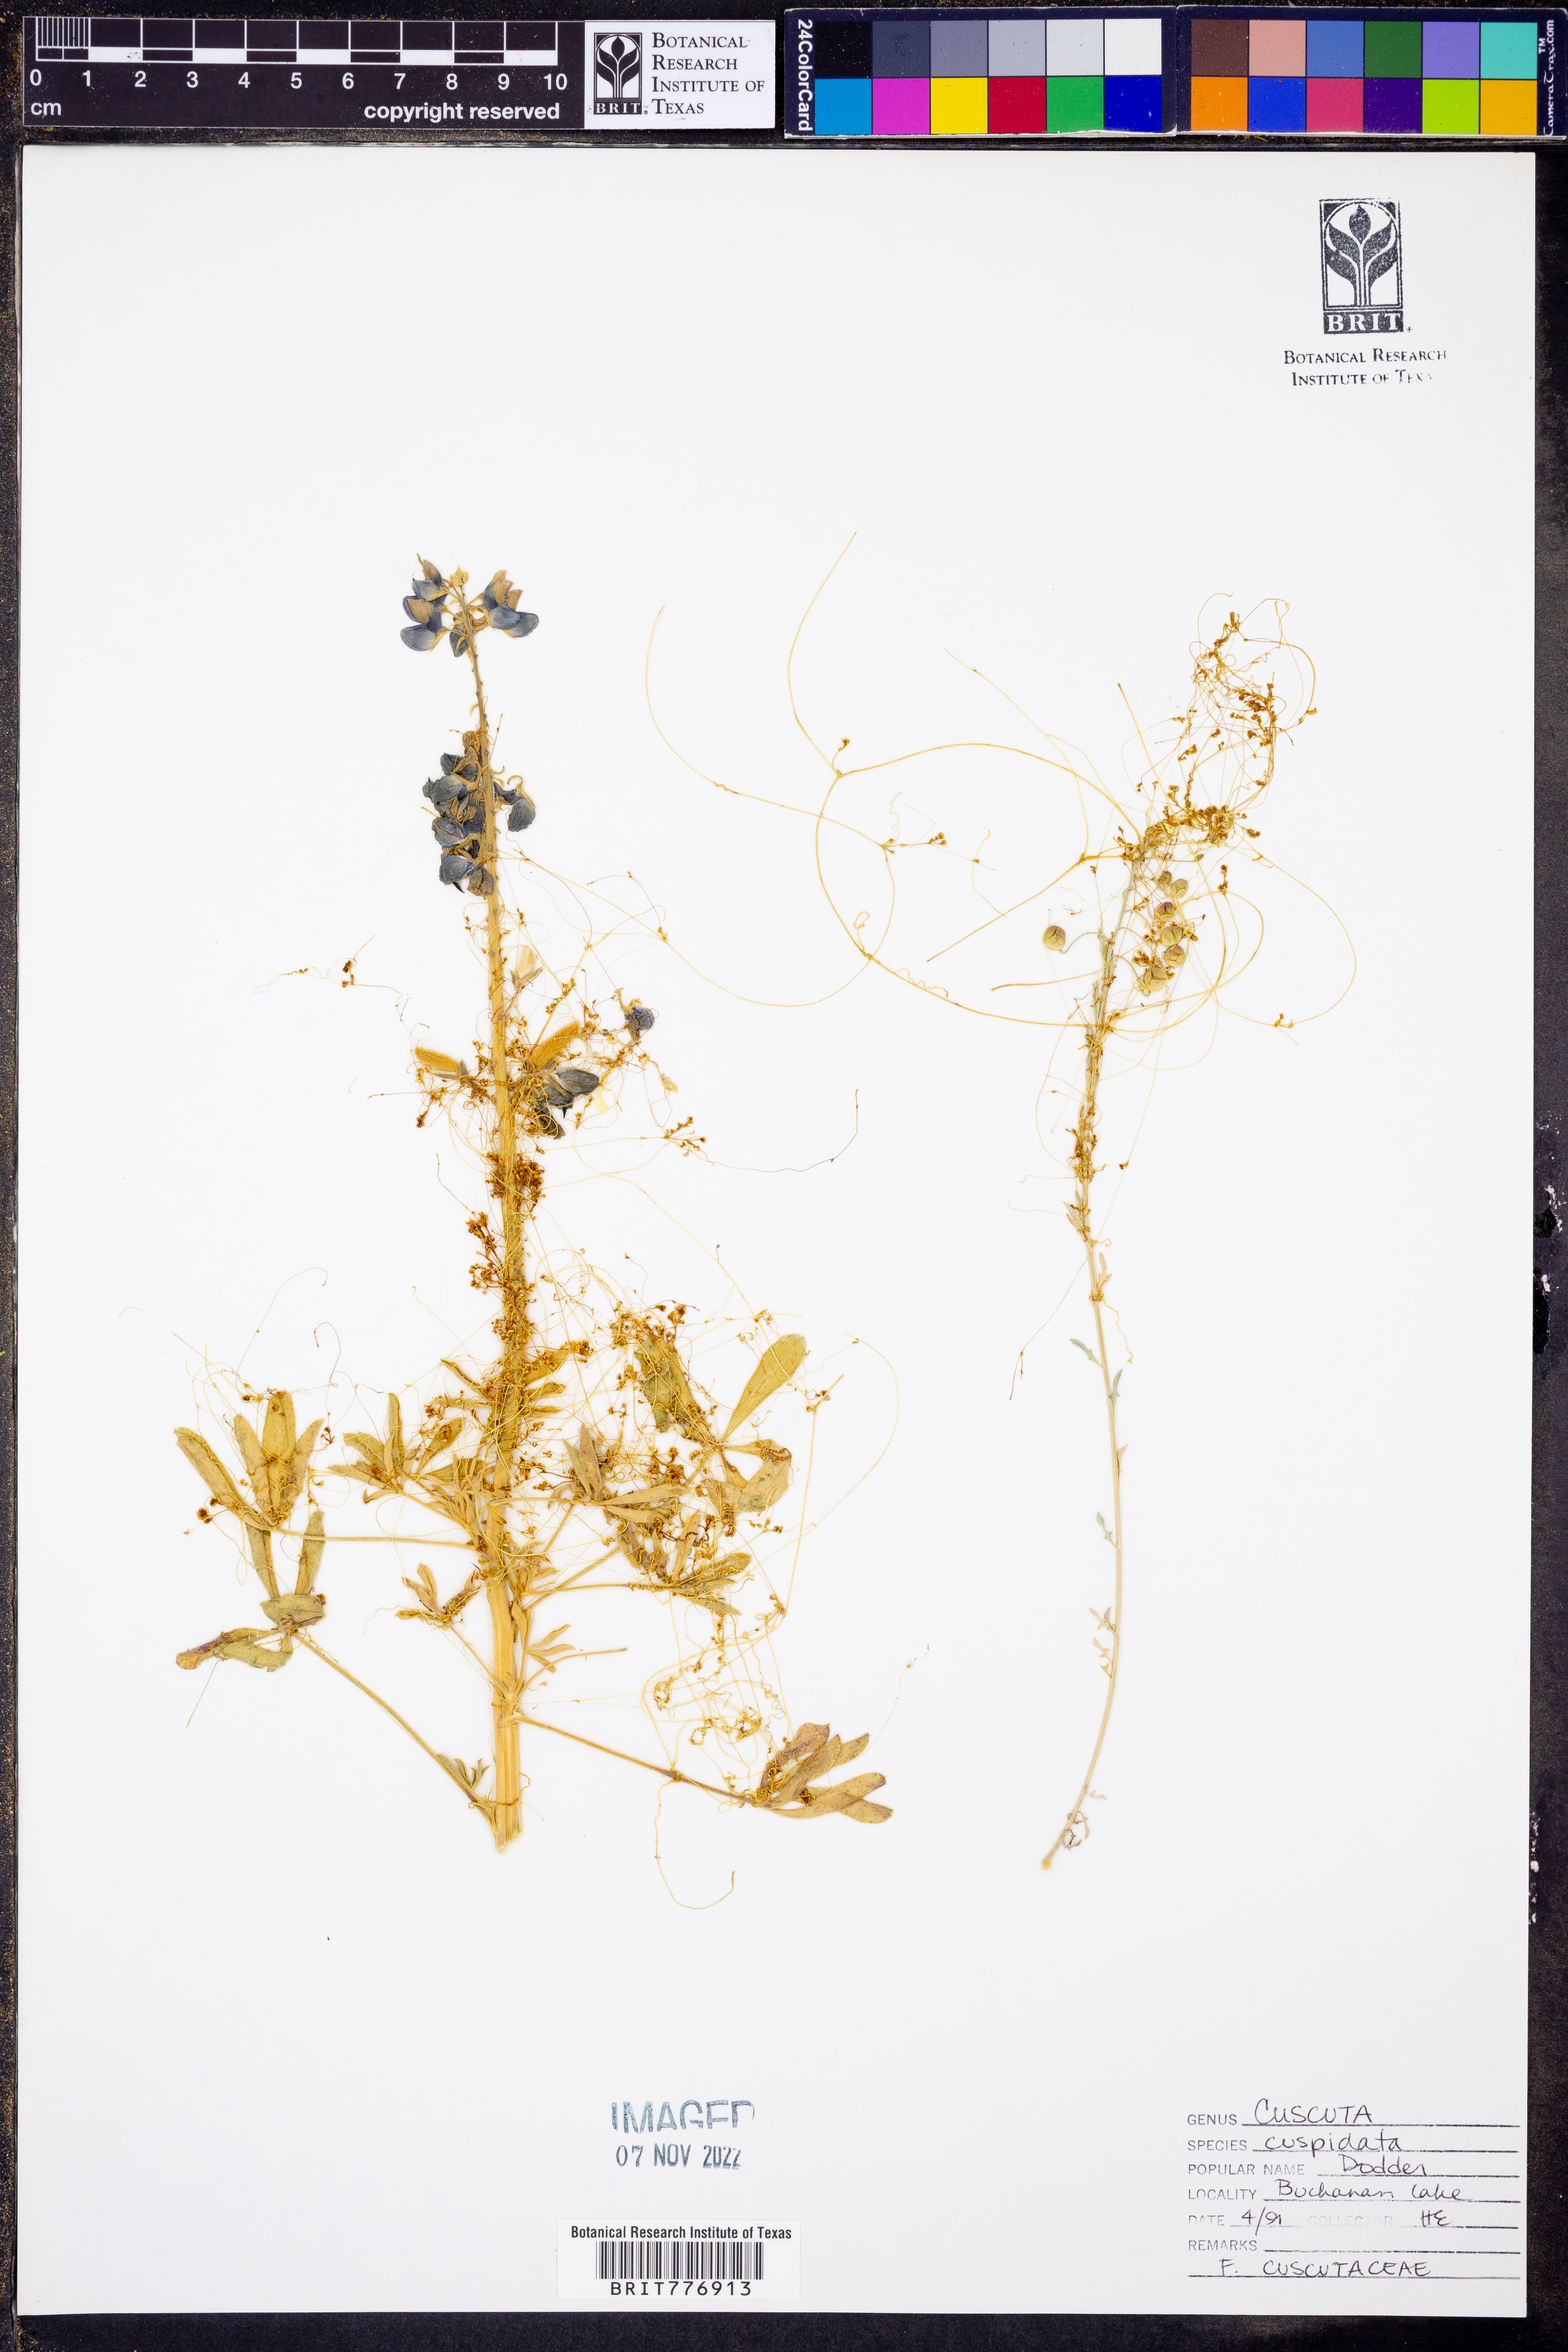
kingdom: Plantae
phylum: Tracheophyta
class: Magnoliopsida
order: Solanales
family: Convolvulaceae
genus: Cuscuta
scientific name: Cuscuta cuspidata
